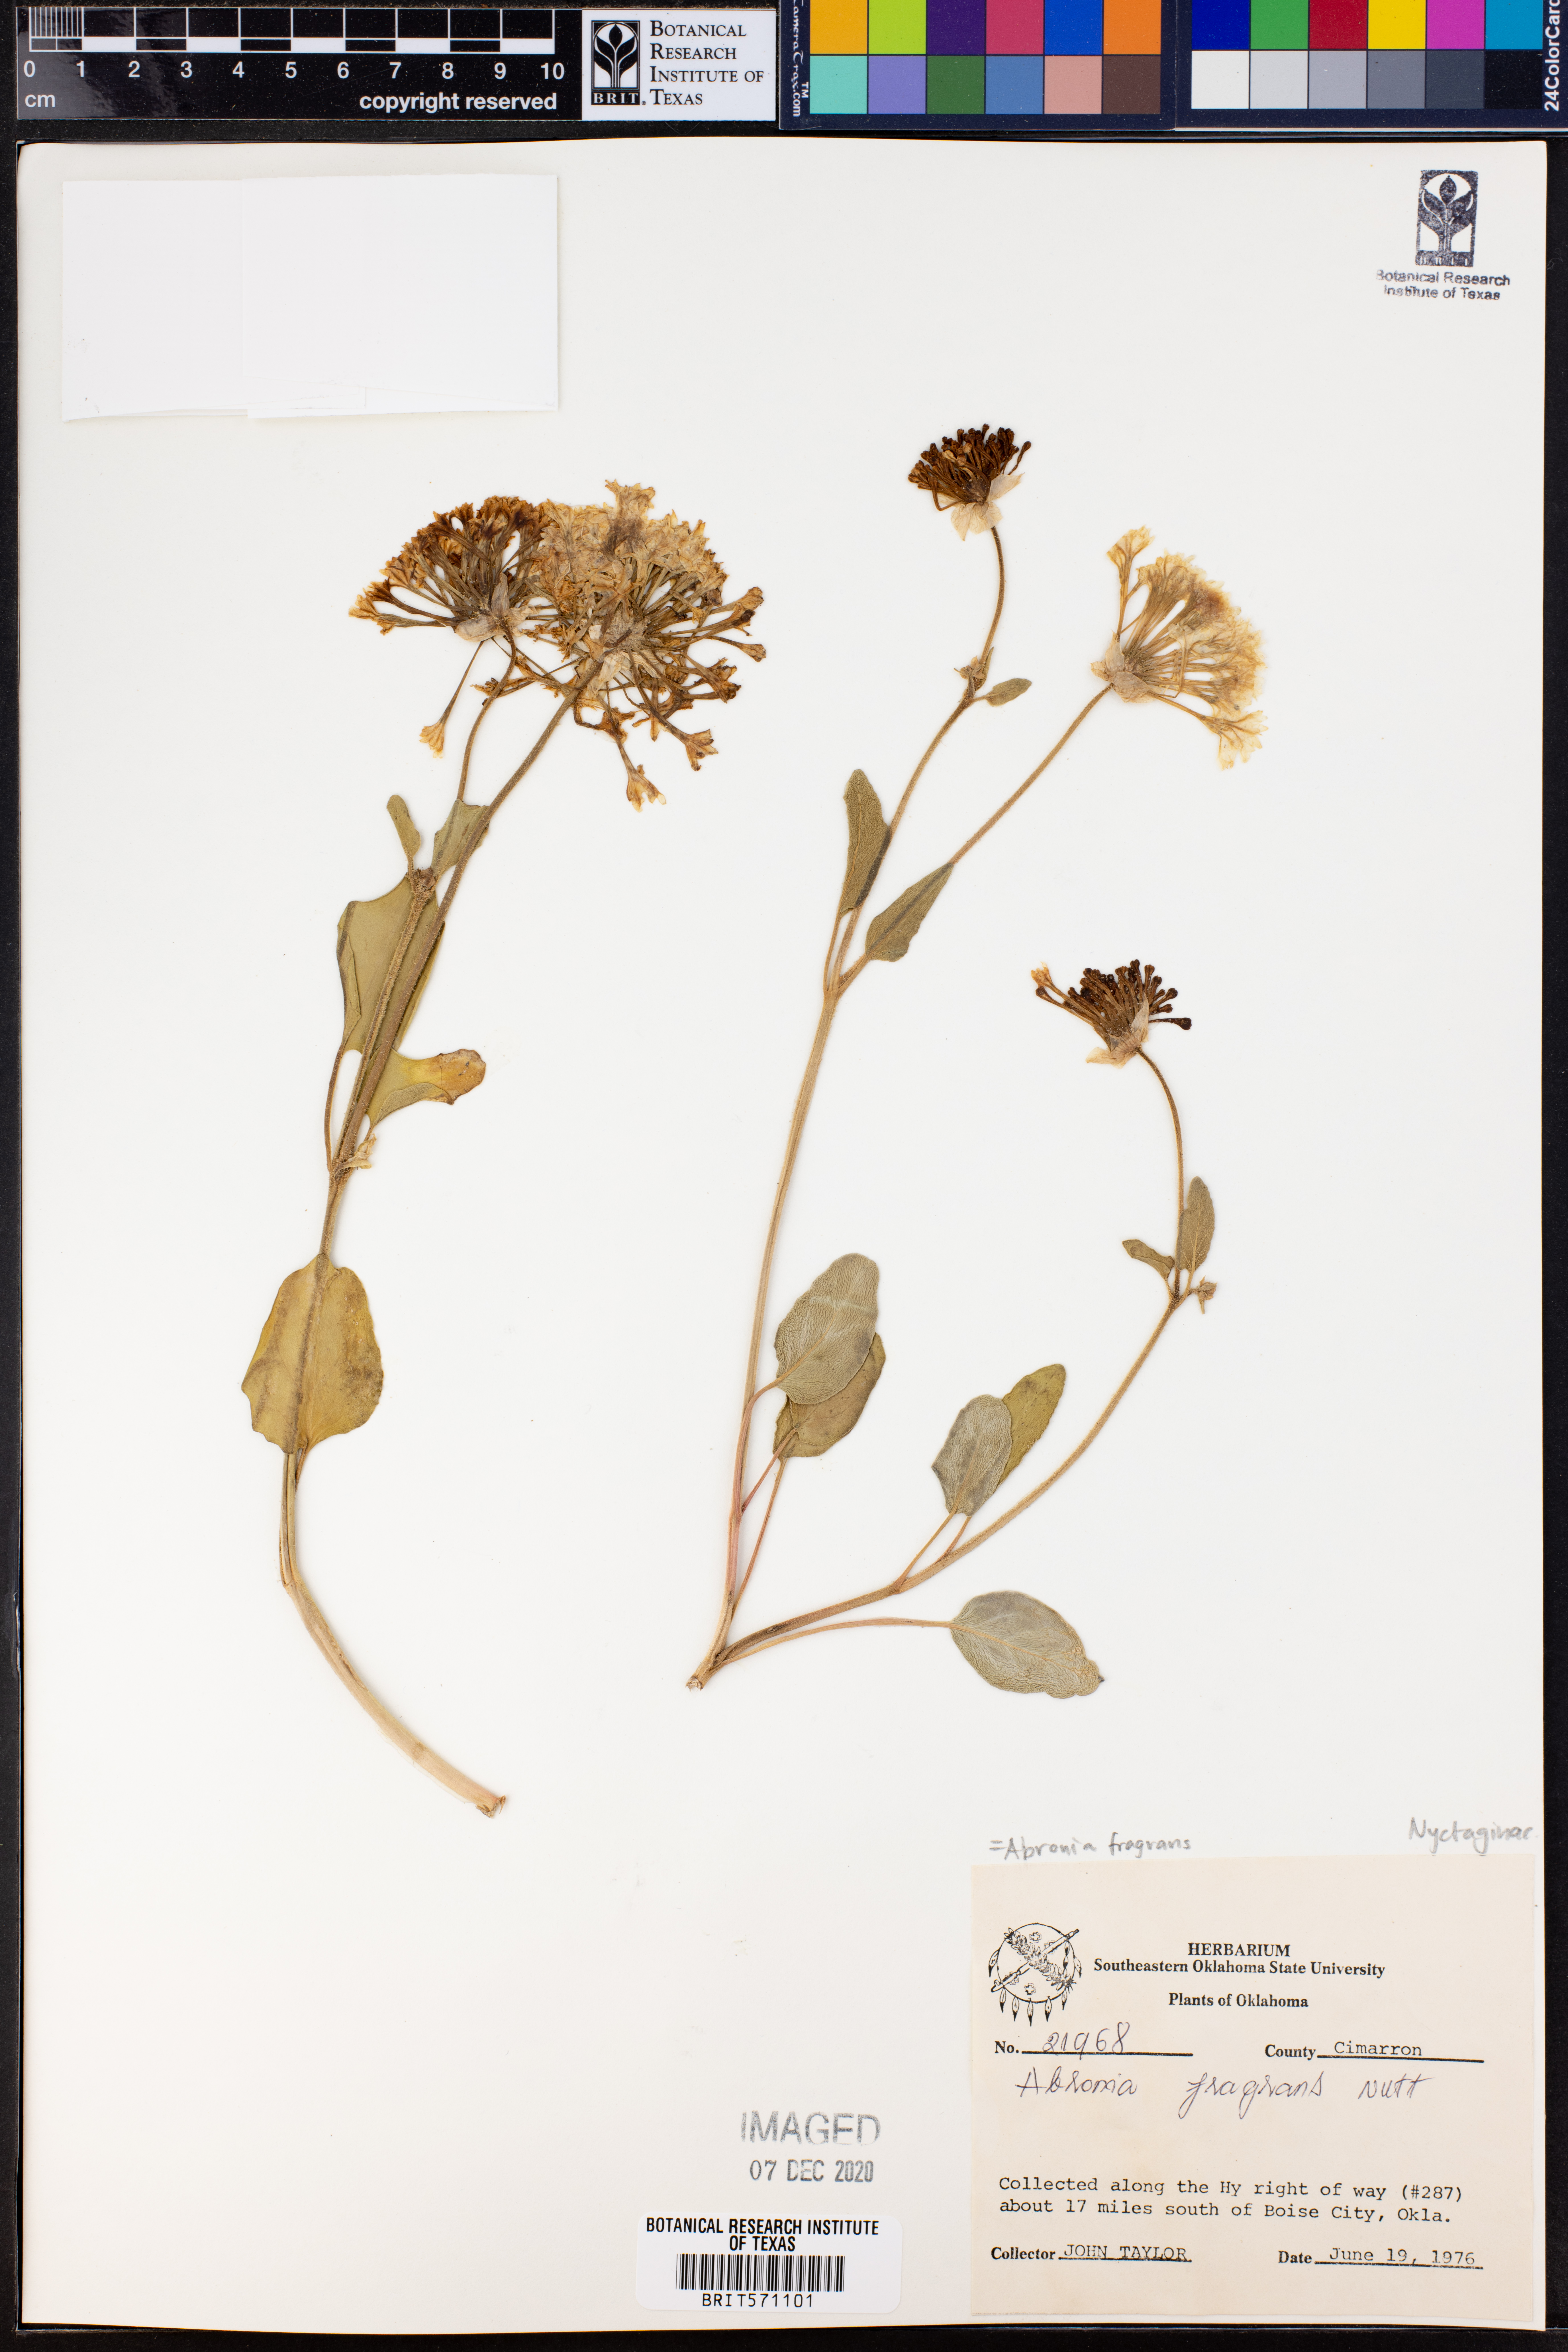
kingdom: Plantae
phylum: Tracheophyta
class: Magnoliopsida
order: Caryophyllales
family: Nyctaginaceae
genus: Abronia
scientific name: Abronia fragrans
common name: Fragrant sand-verbena
